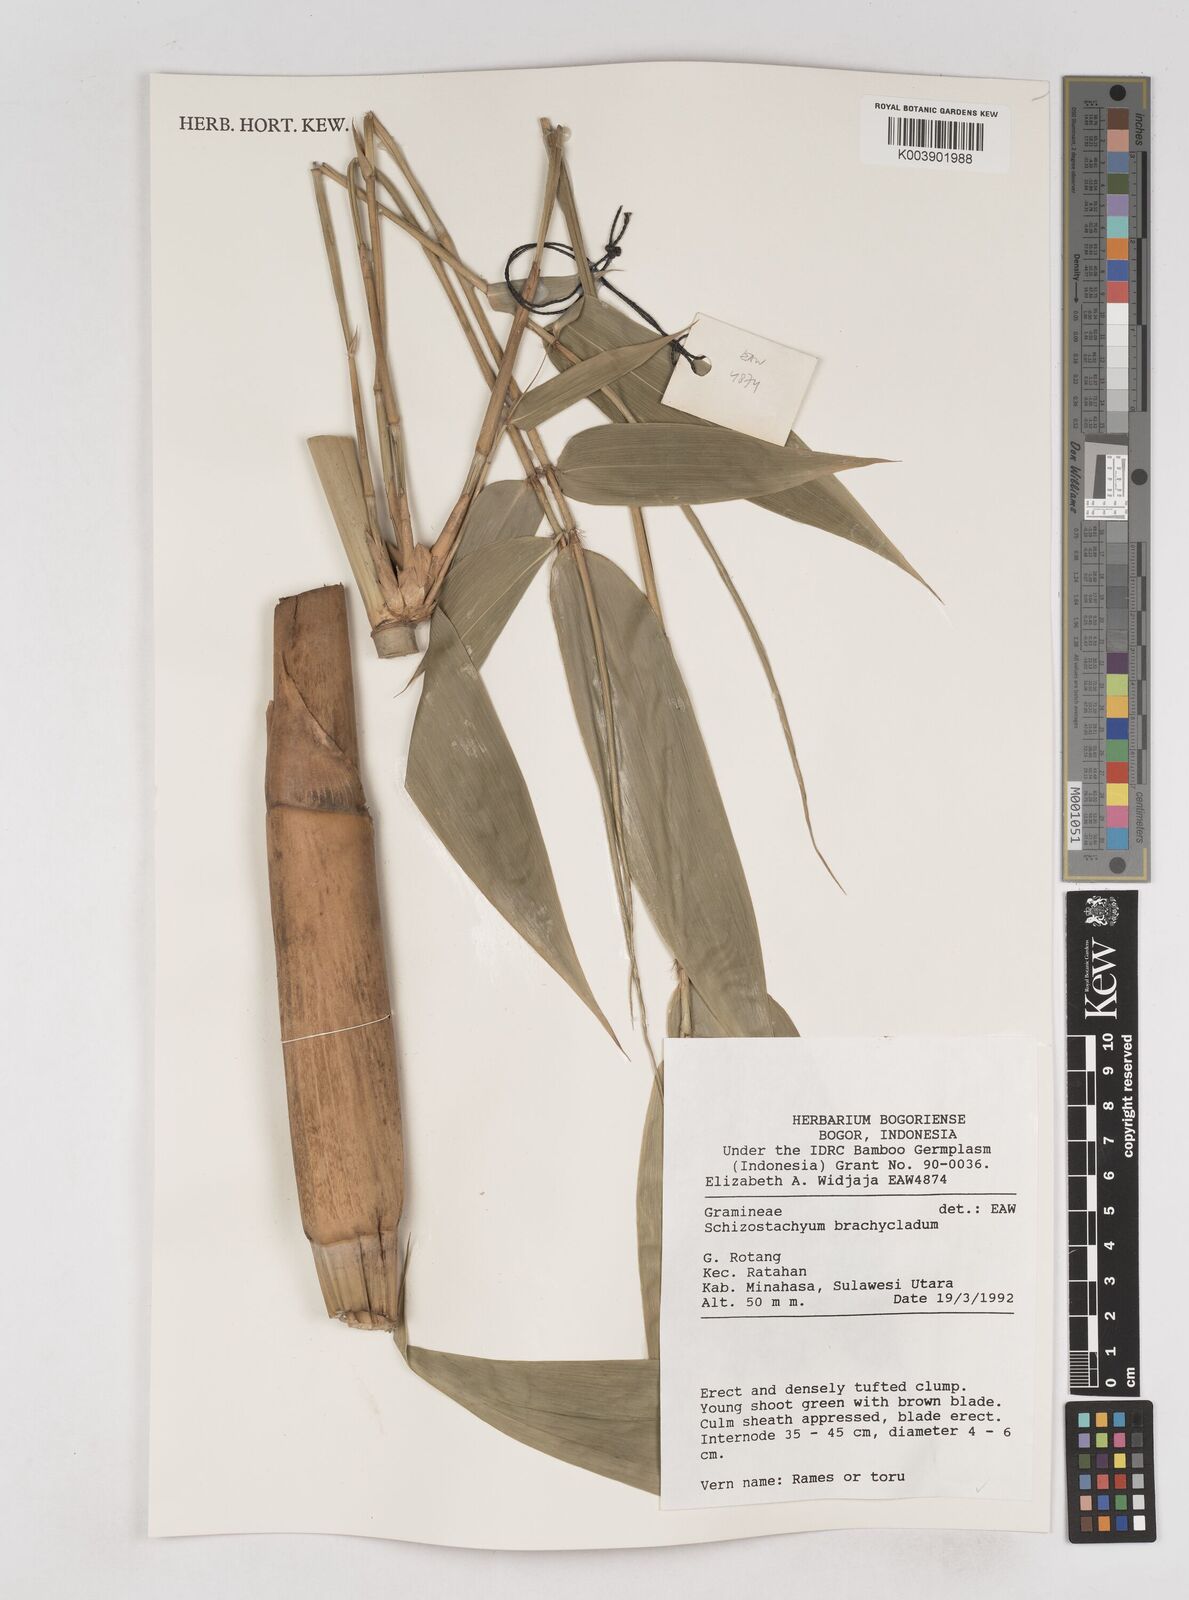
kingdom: Plantae
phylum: Tracheophyta
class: Liliopsida
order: Poales
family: Poaceae
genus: Schizostachyum
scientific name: Schizostachyum brachycladum
